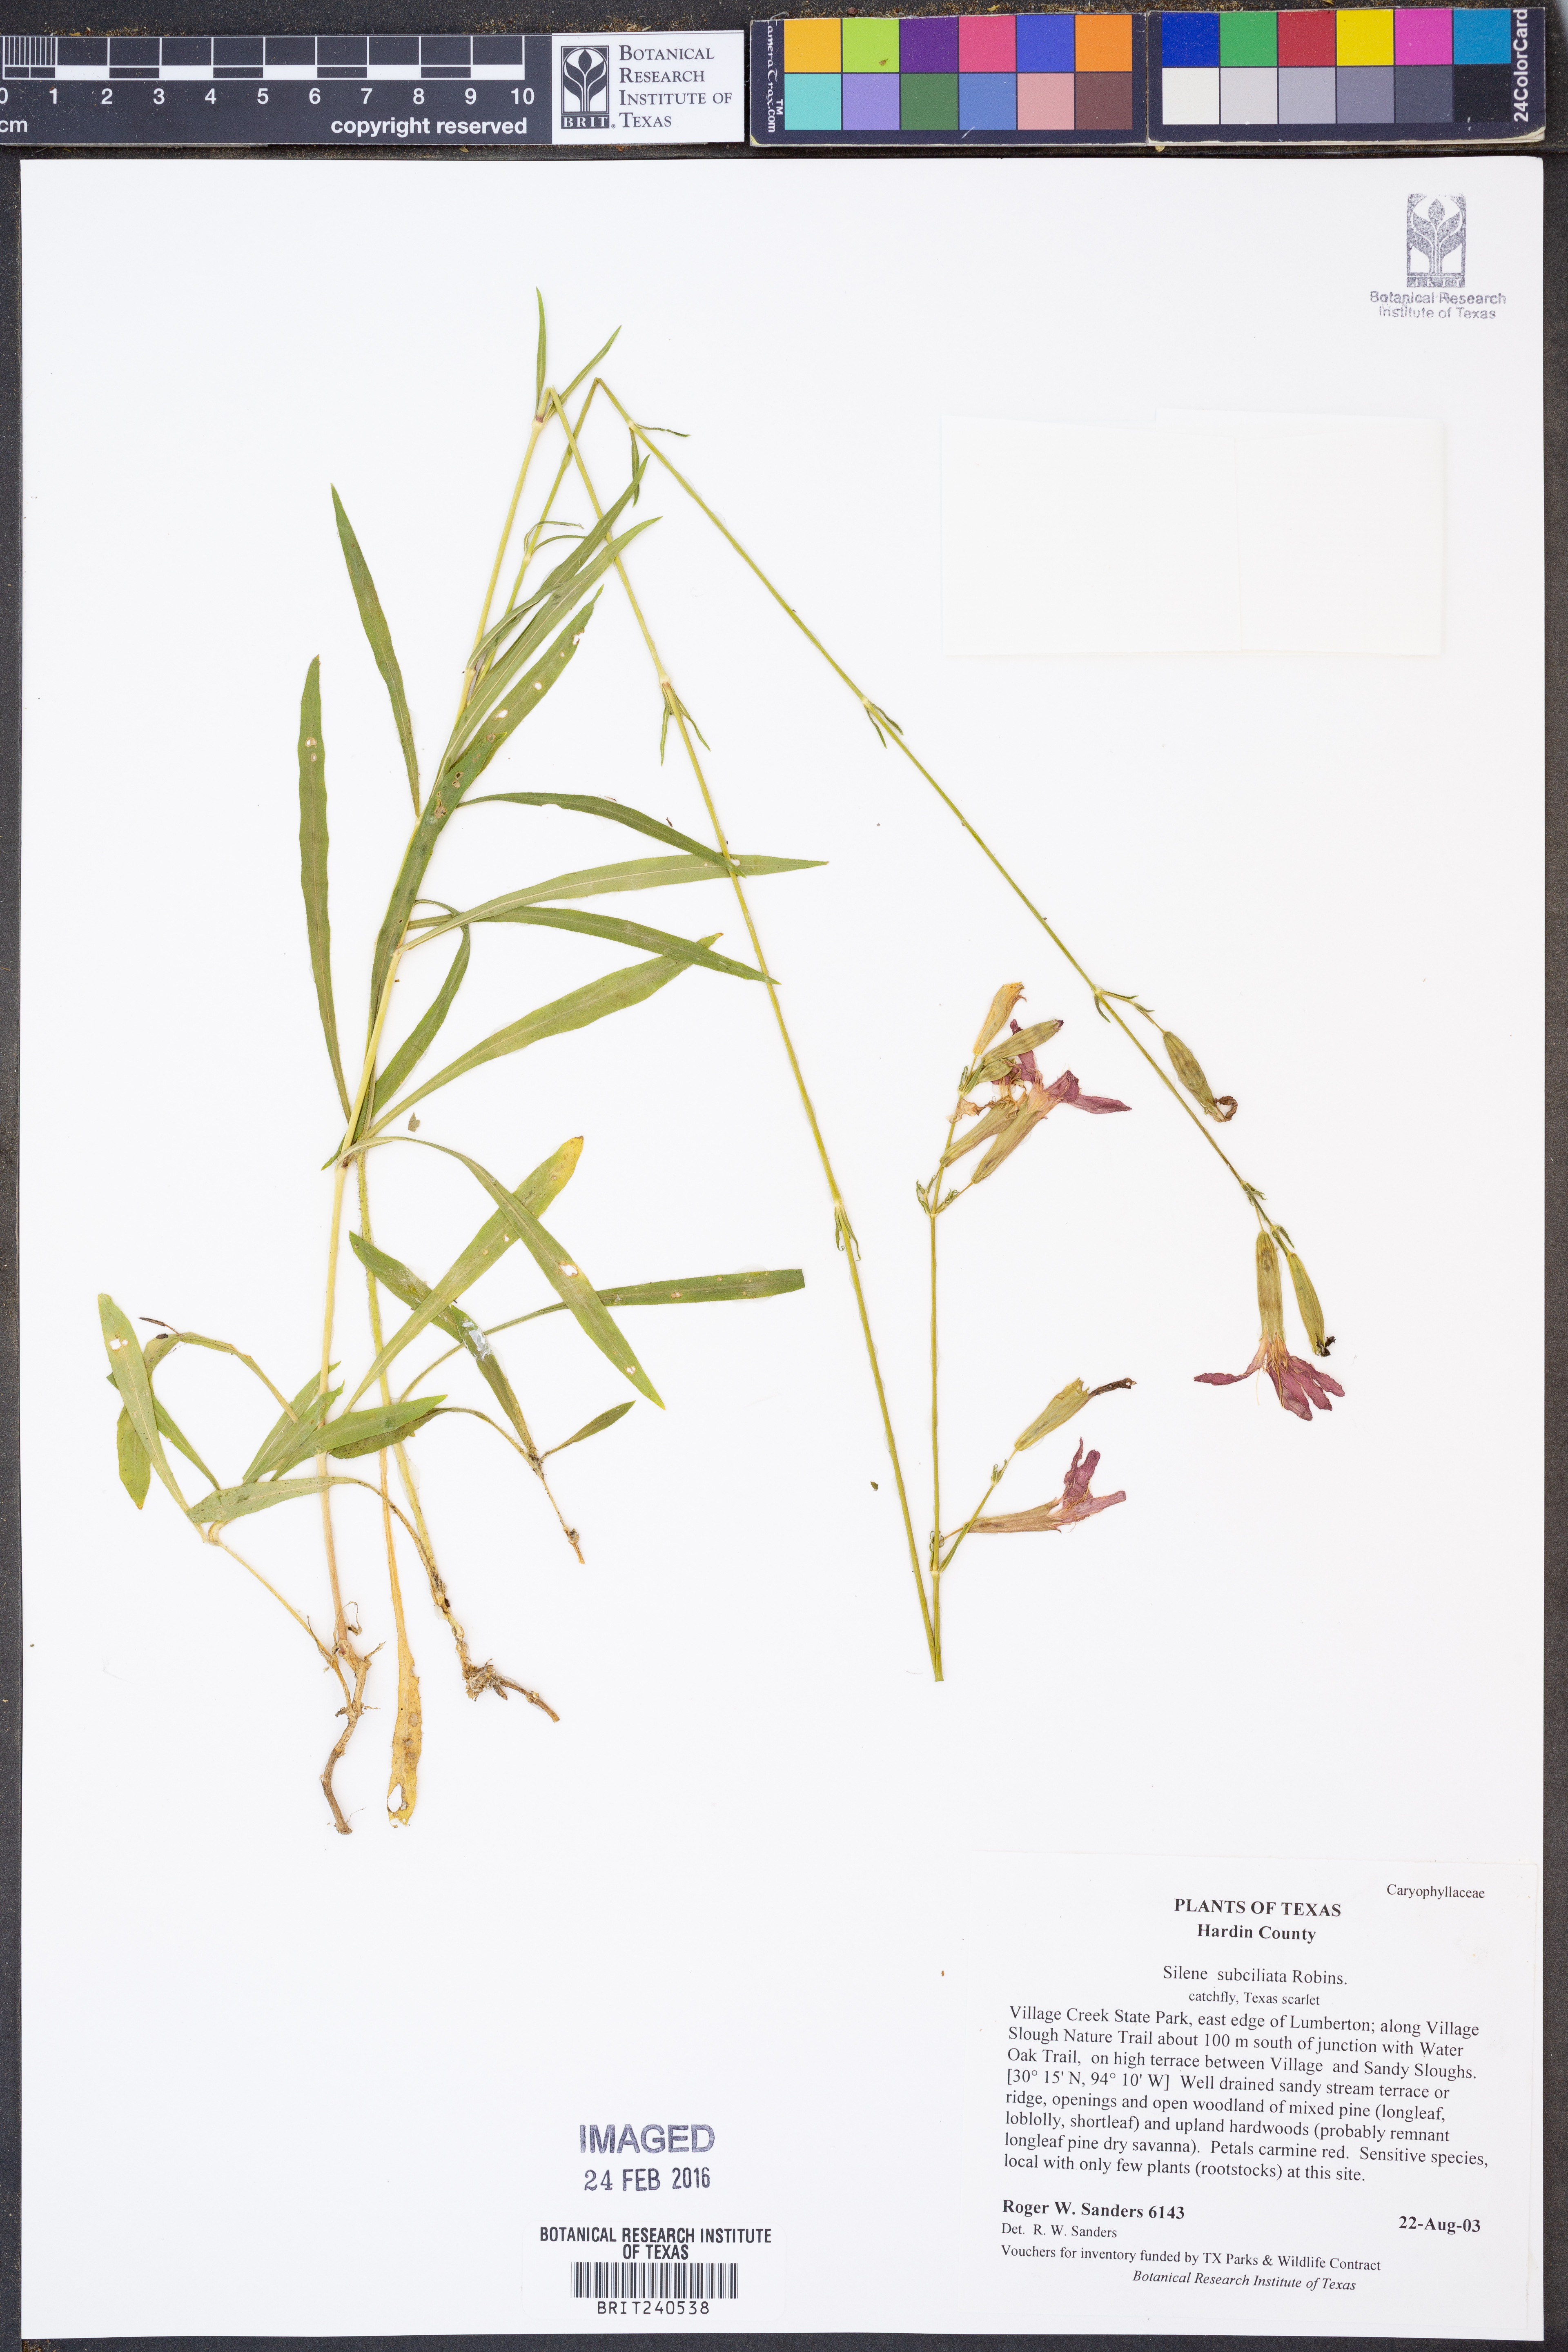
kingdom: Plantae
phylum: Tracheophyta
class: Magnoliopsida
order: Caryophyllales
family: Caryophyllaceae
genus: Silene
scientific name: Silene subciliata
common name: Prairie fire-pink
